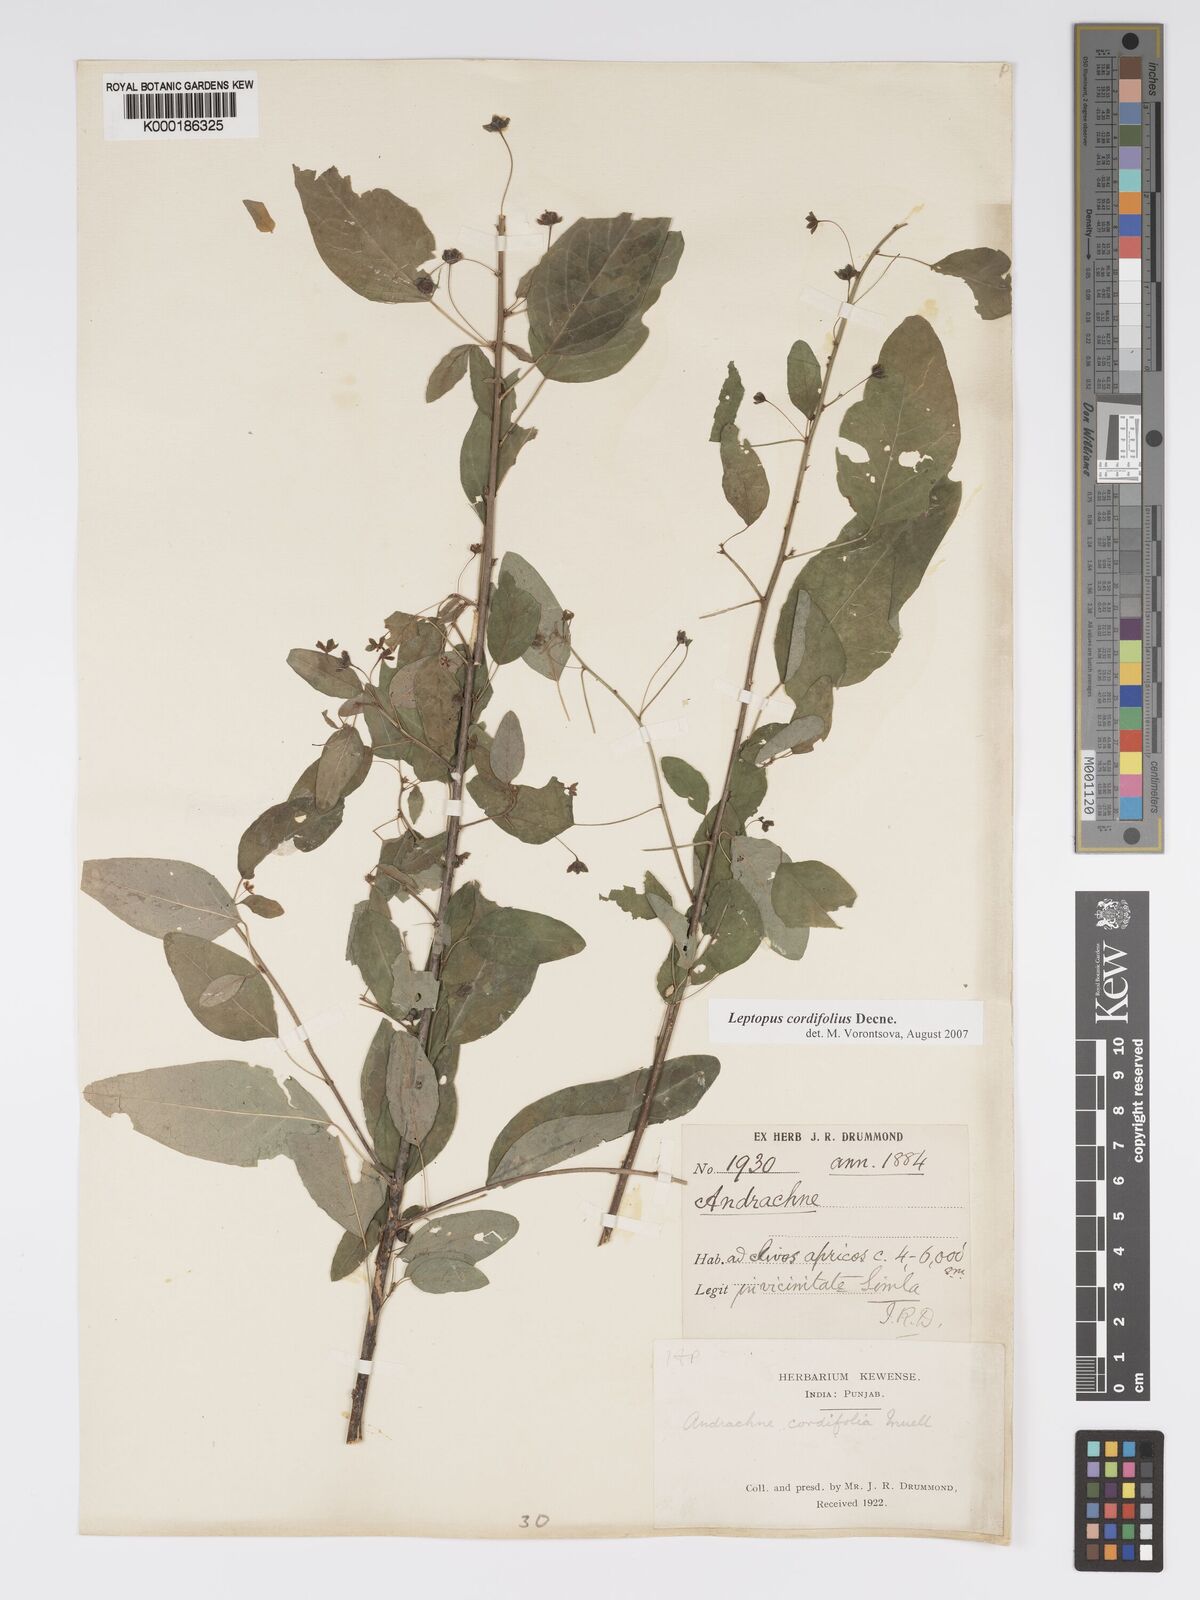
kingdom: Plantae
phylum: Tracheophyta
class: Magnoliopsida
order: Malpighiales
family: Phyllanthaceae
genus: Leptopus
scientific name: Leptopus cordifolius
